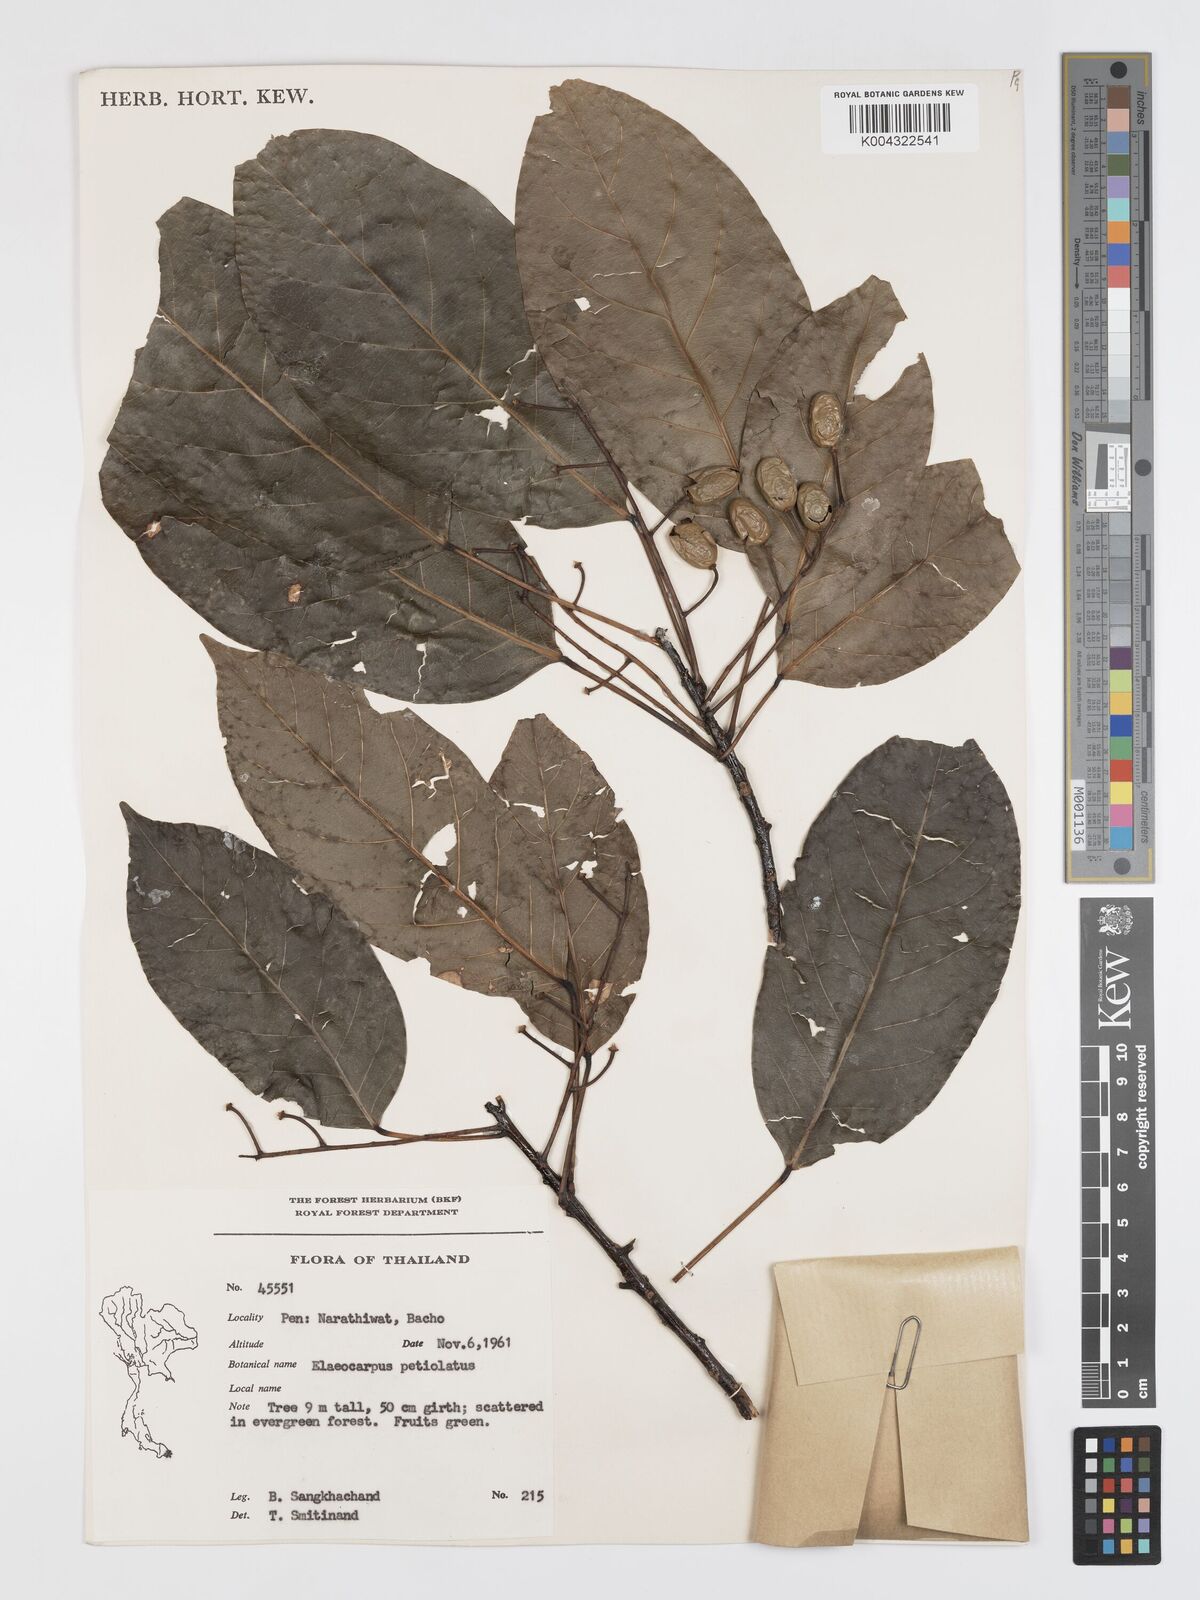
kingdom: Plantae
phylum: Tracheophyta
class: Magnoliopsida
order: Oxalidales
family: Elaeocarpaceae
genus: Elaeocarpus
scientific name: Elaeocarpus petiolatus
